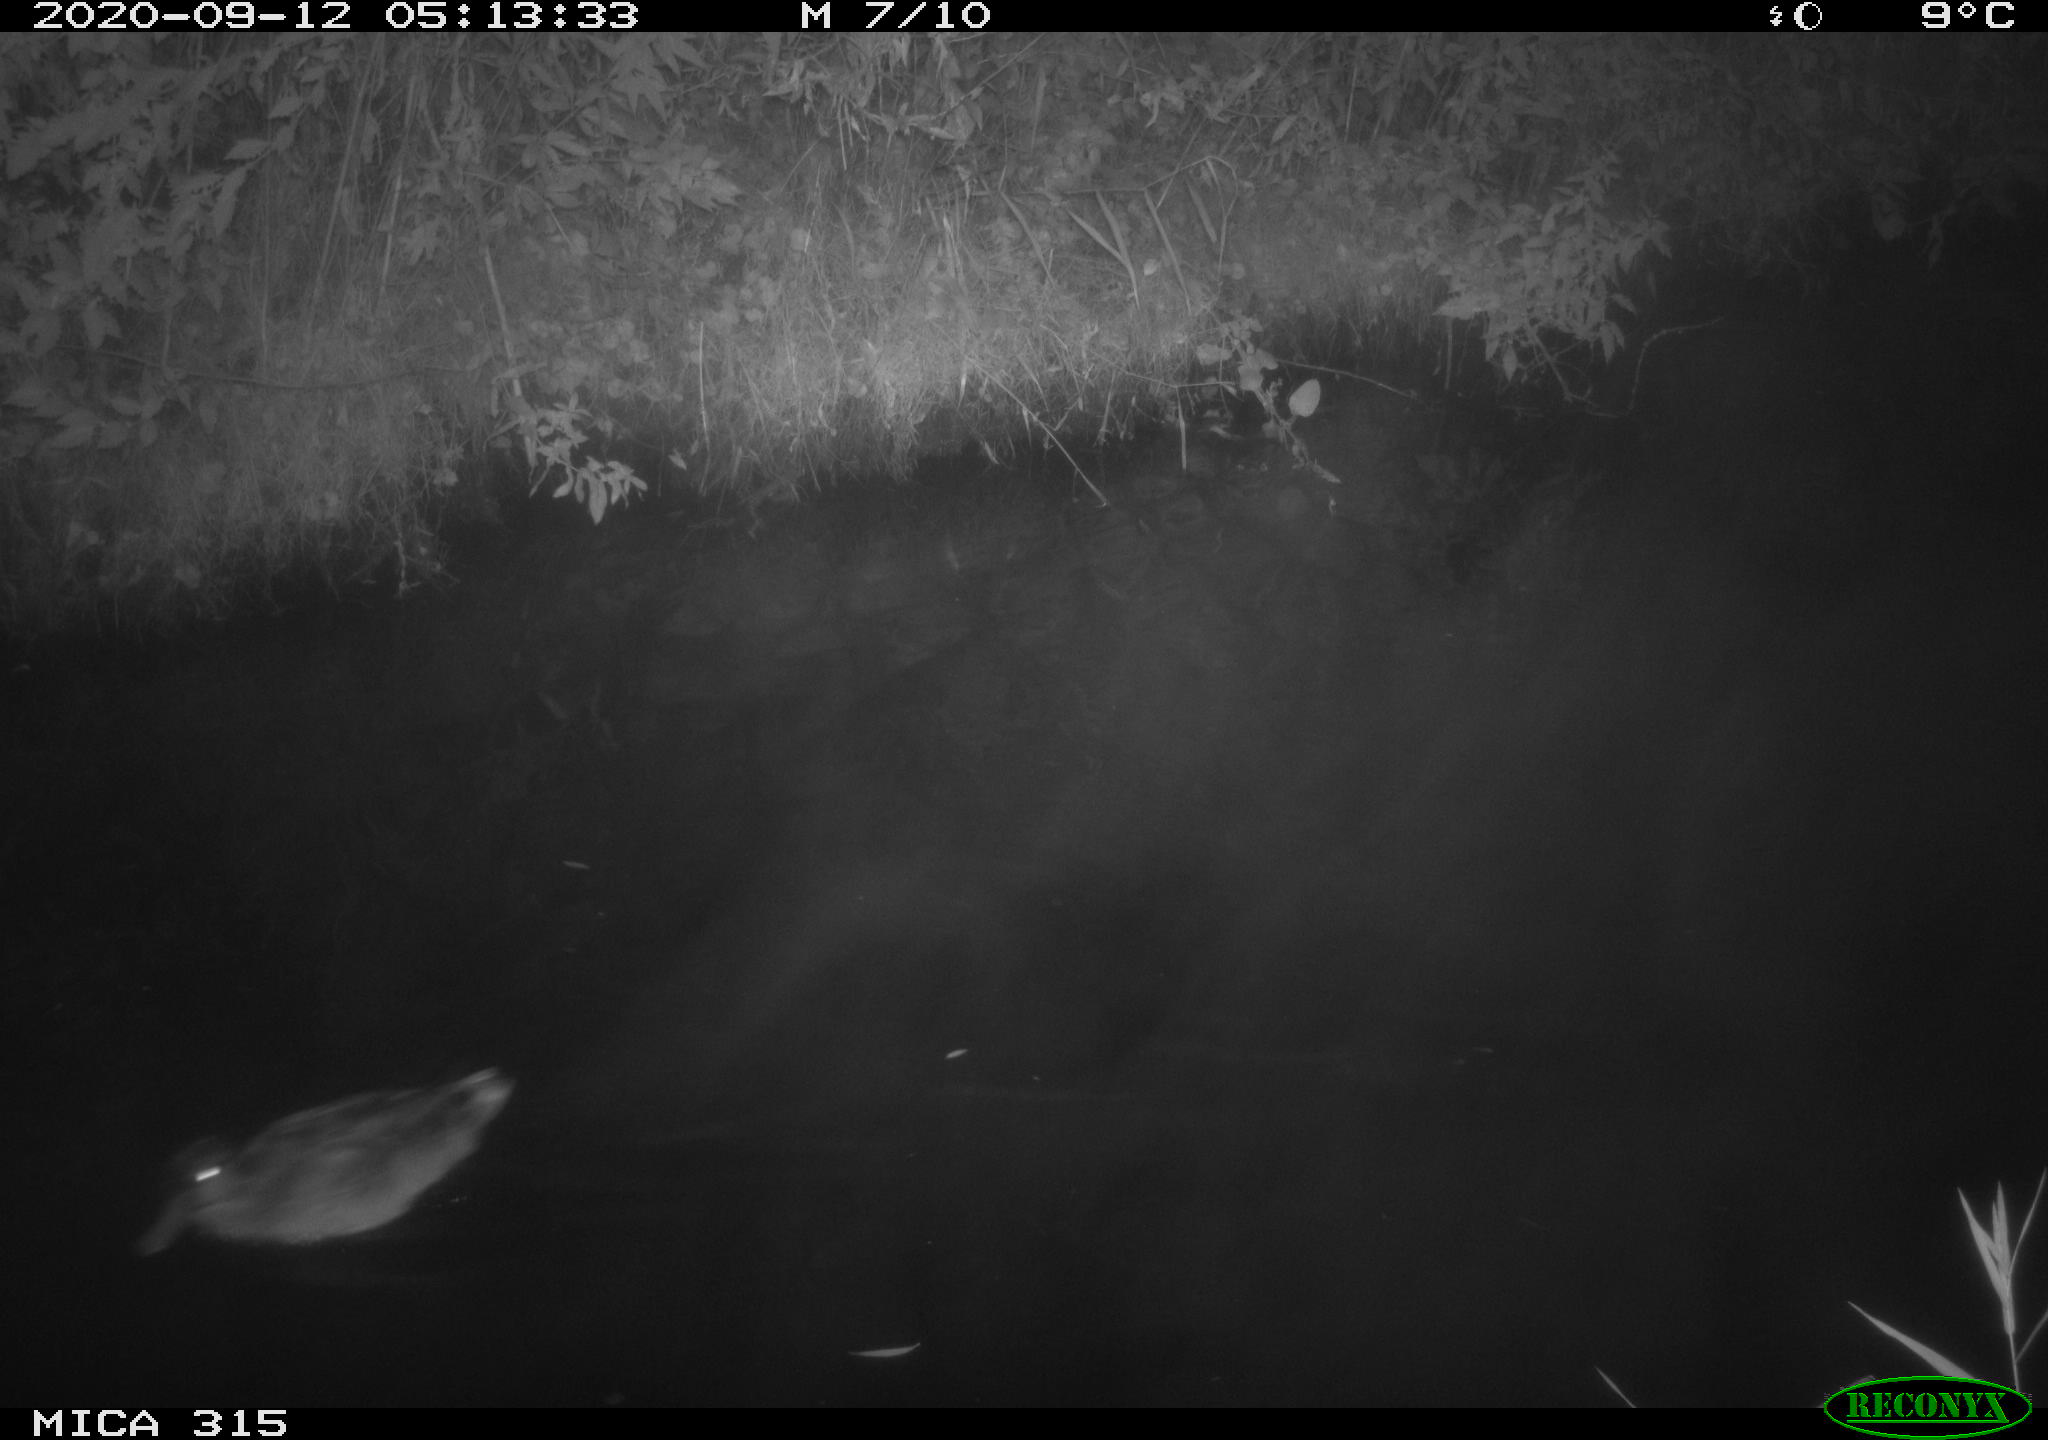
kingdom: Animalia
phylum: Chordata
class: Aves
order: Anseriformes
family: Anatidae
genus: Anas
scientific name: Anas platyrhynchos
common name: Mallard
